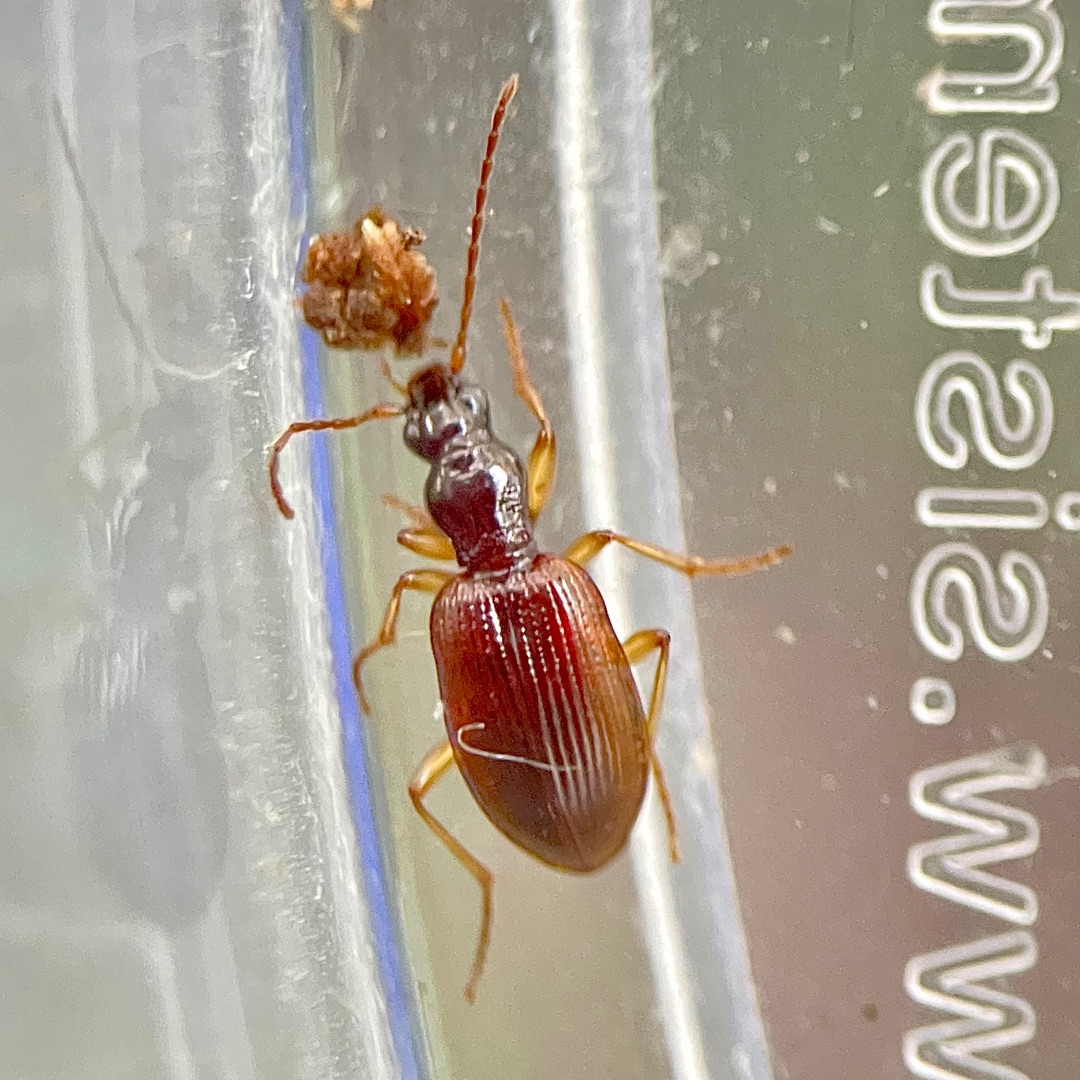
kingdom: Animalia
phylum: Arthropoda
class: Insecta
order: Coleoptera
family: Carabidae
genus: Oxypselaphus
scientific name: Oxypselaphus obscurus
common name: Rødbrun kvikløber
